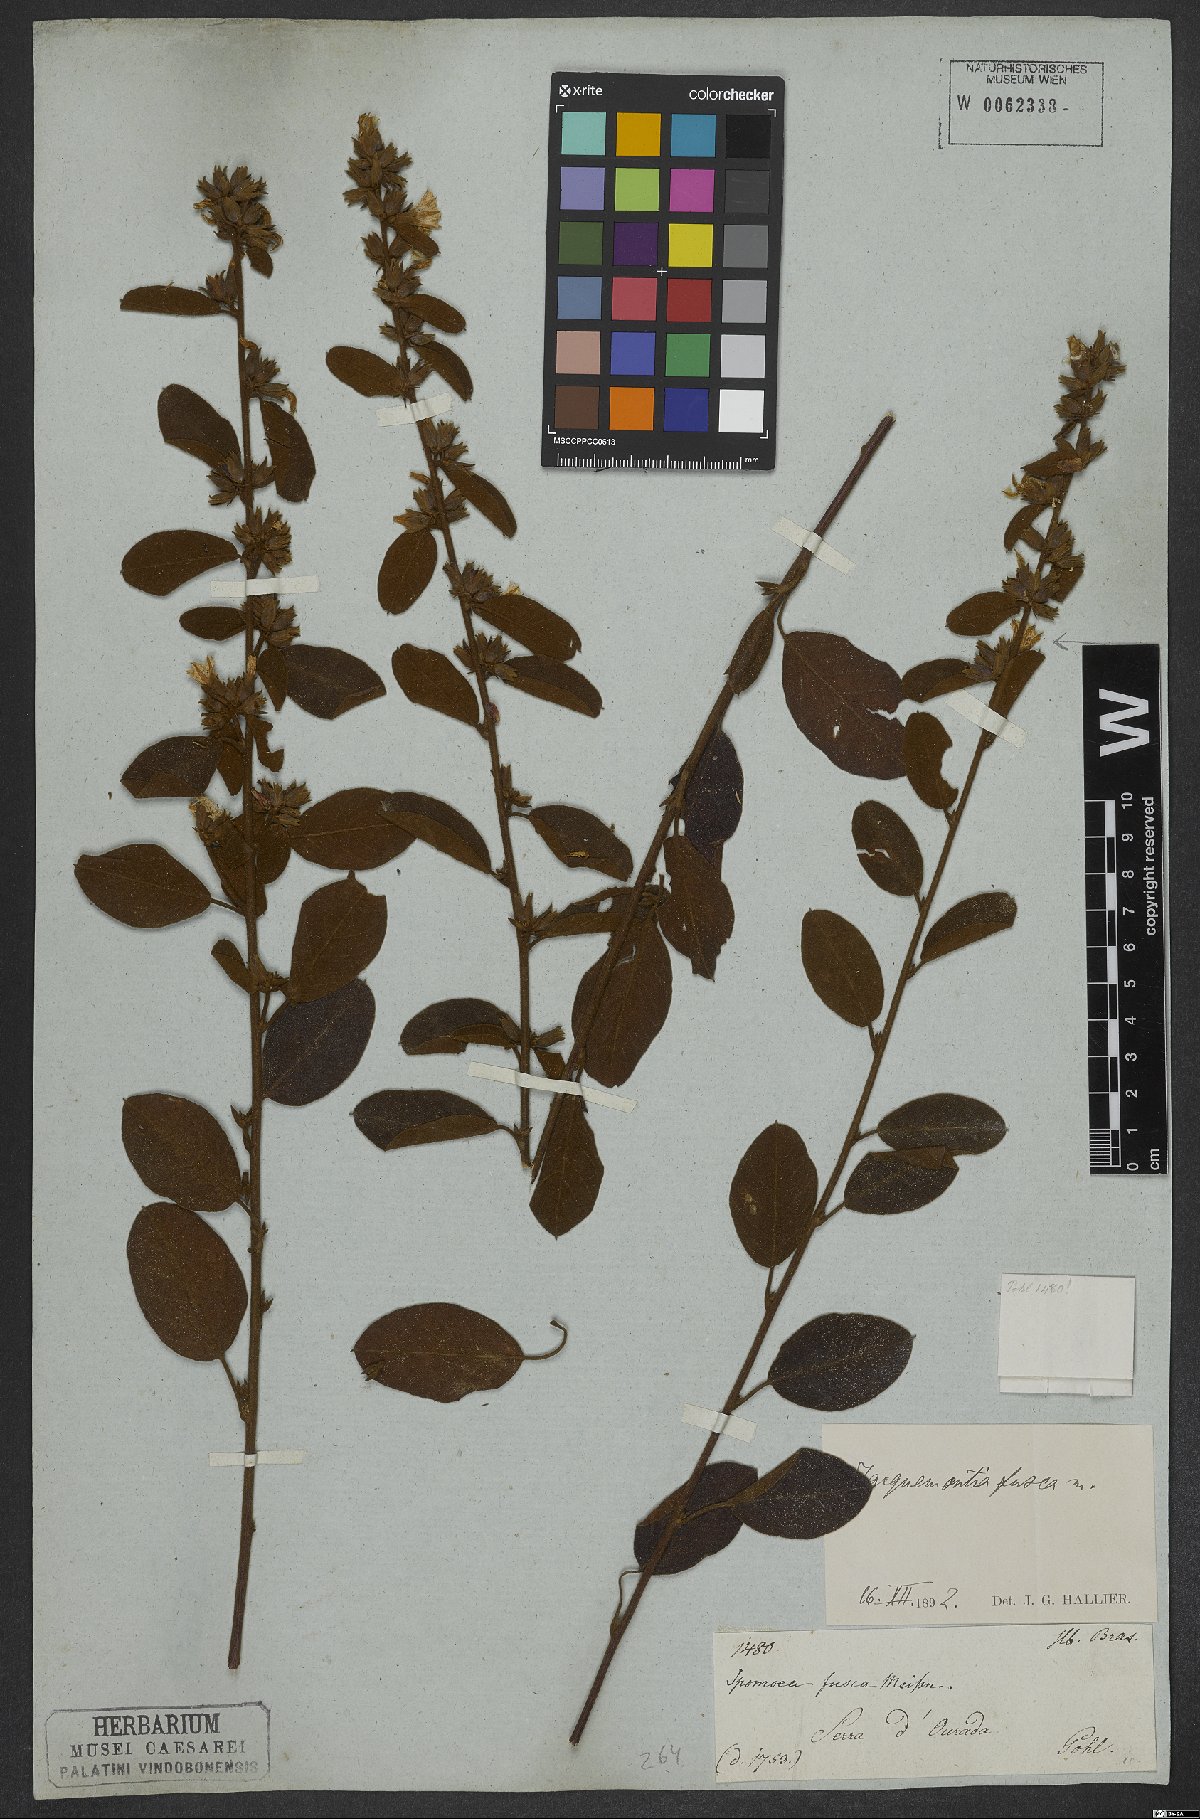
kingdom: Plantae
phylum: Tracheophyta
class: Magnoliopsida
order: Solanales
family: Convolvulaceae
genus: Jacquemontia
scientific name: Jacquemontia fusca
